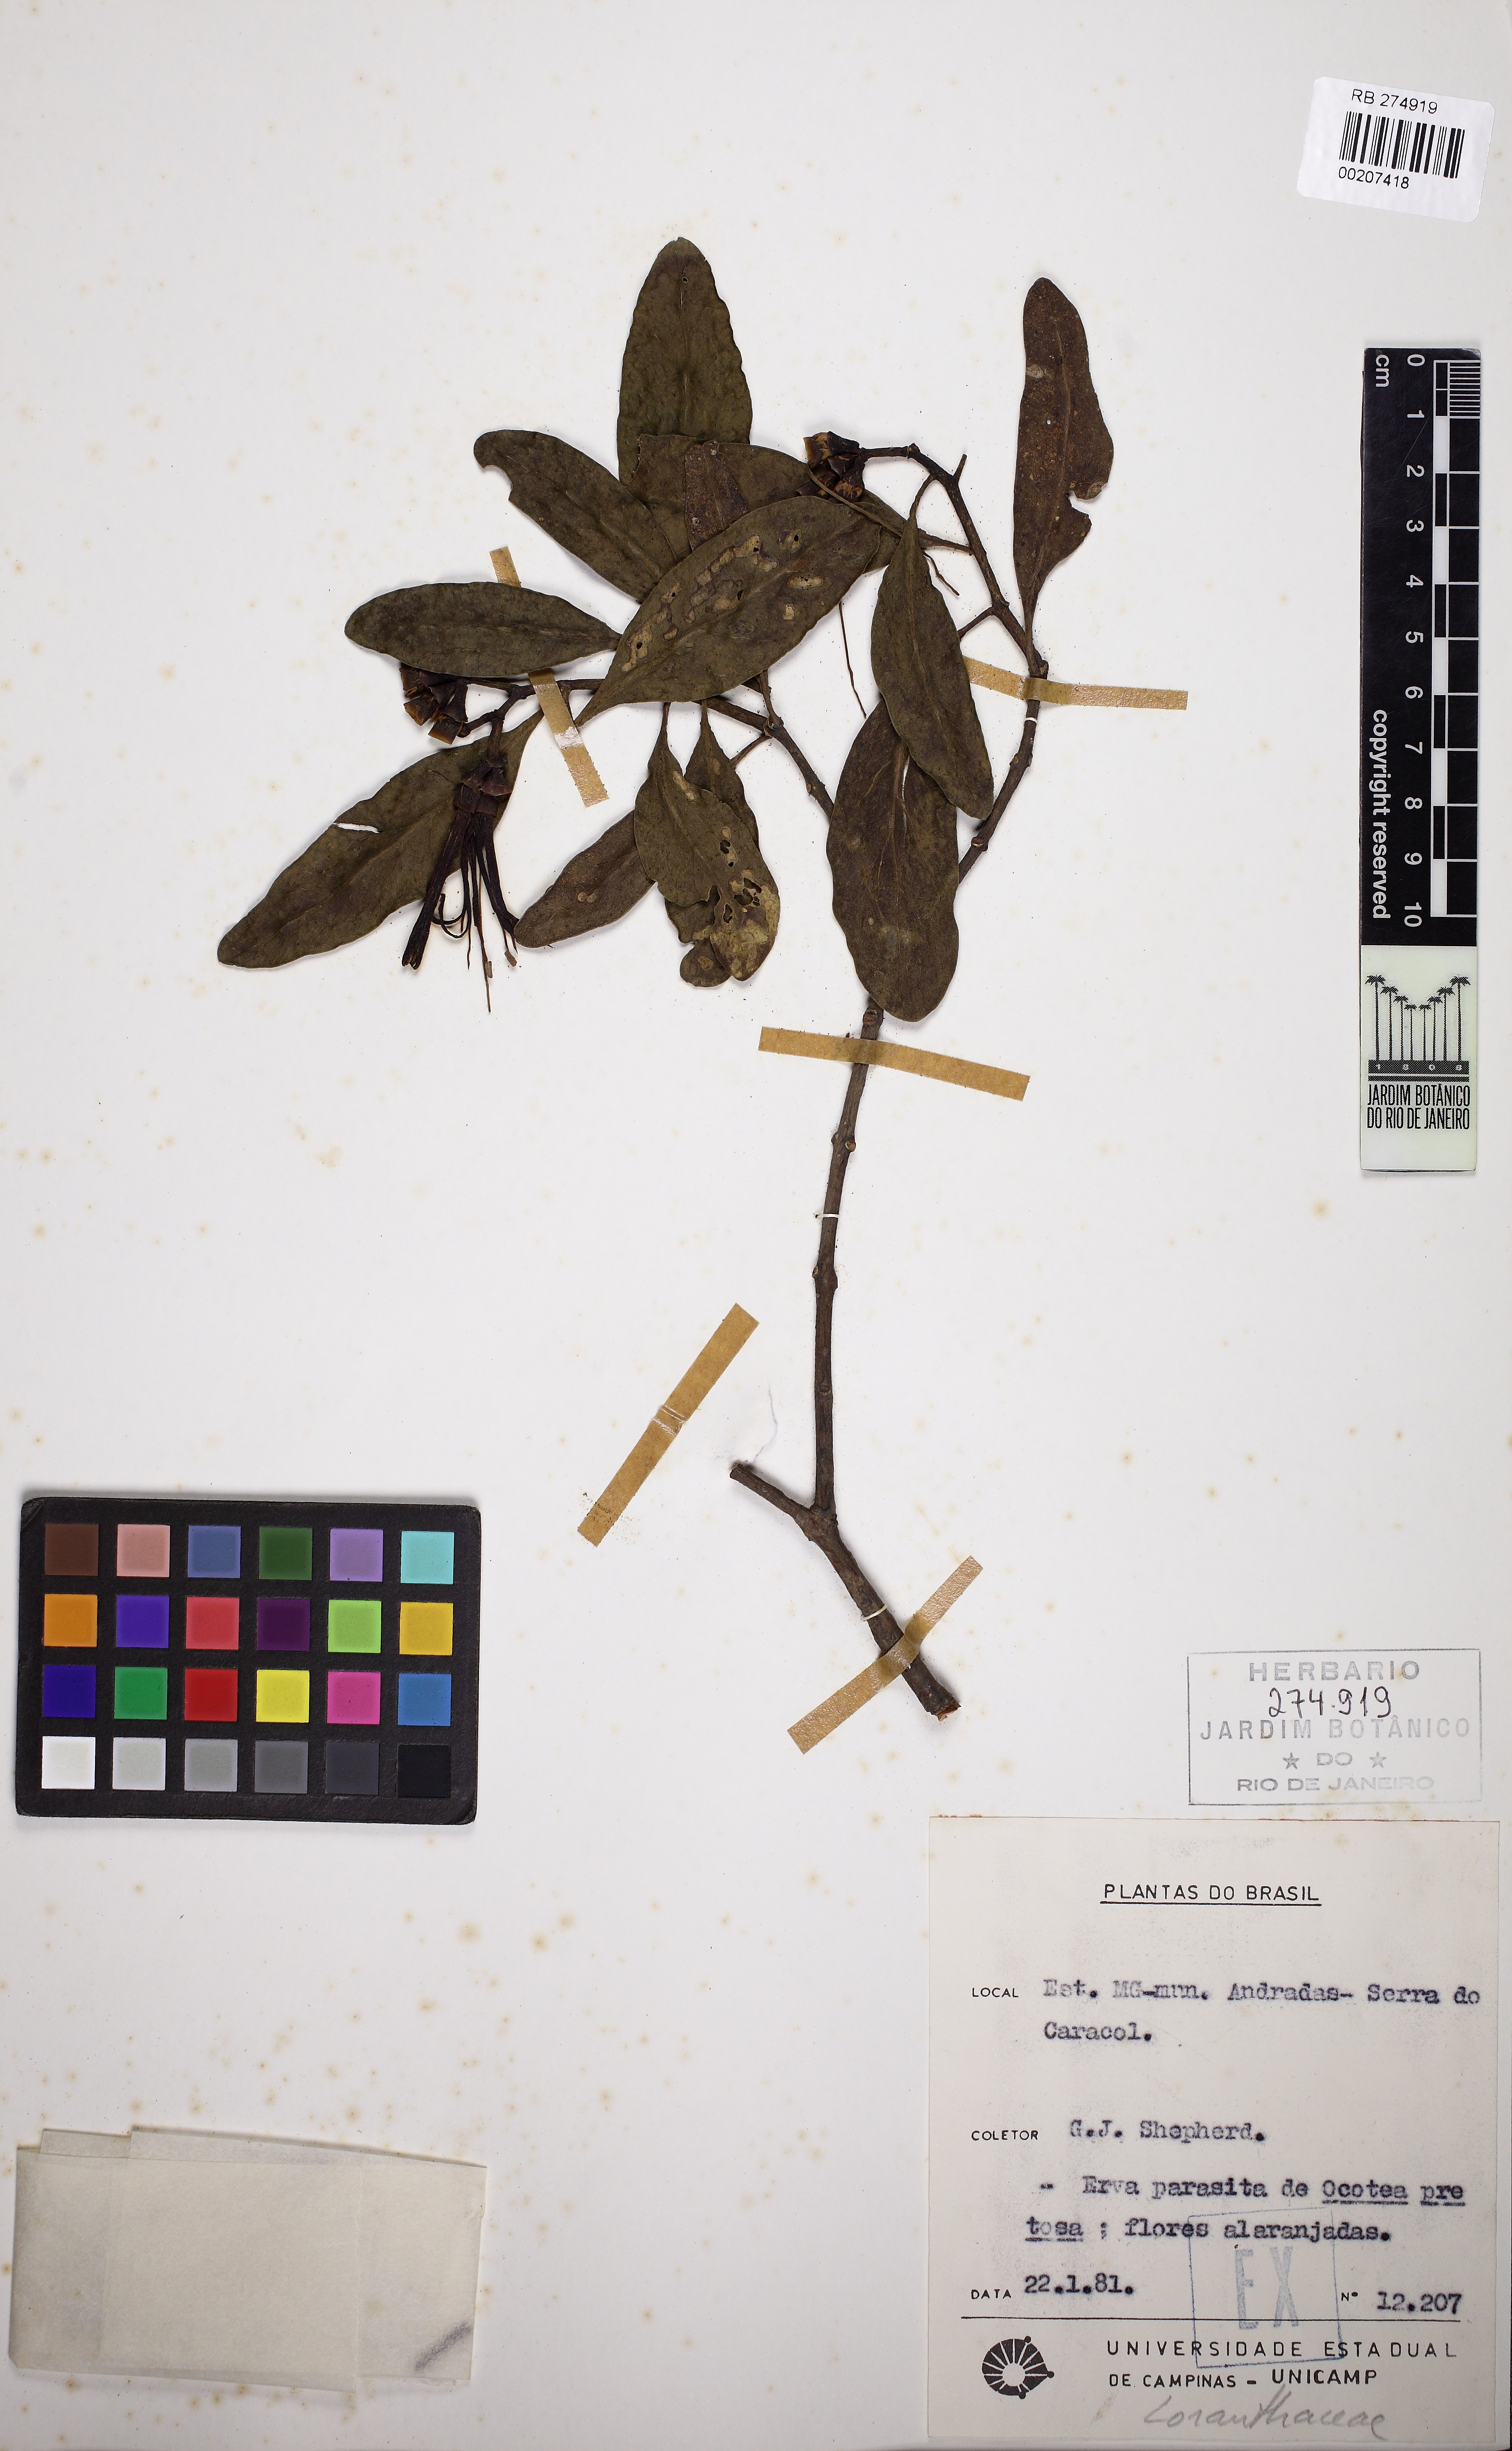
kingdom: Plantae
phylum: Tracheophyta
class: Magnoliopsida
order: Santalales
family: Loranthaceae
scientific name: Loranthaceae
